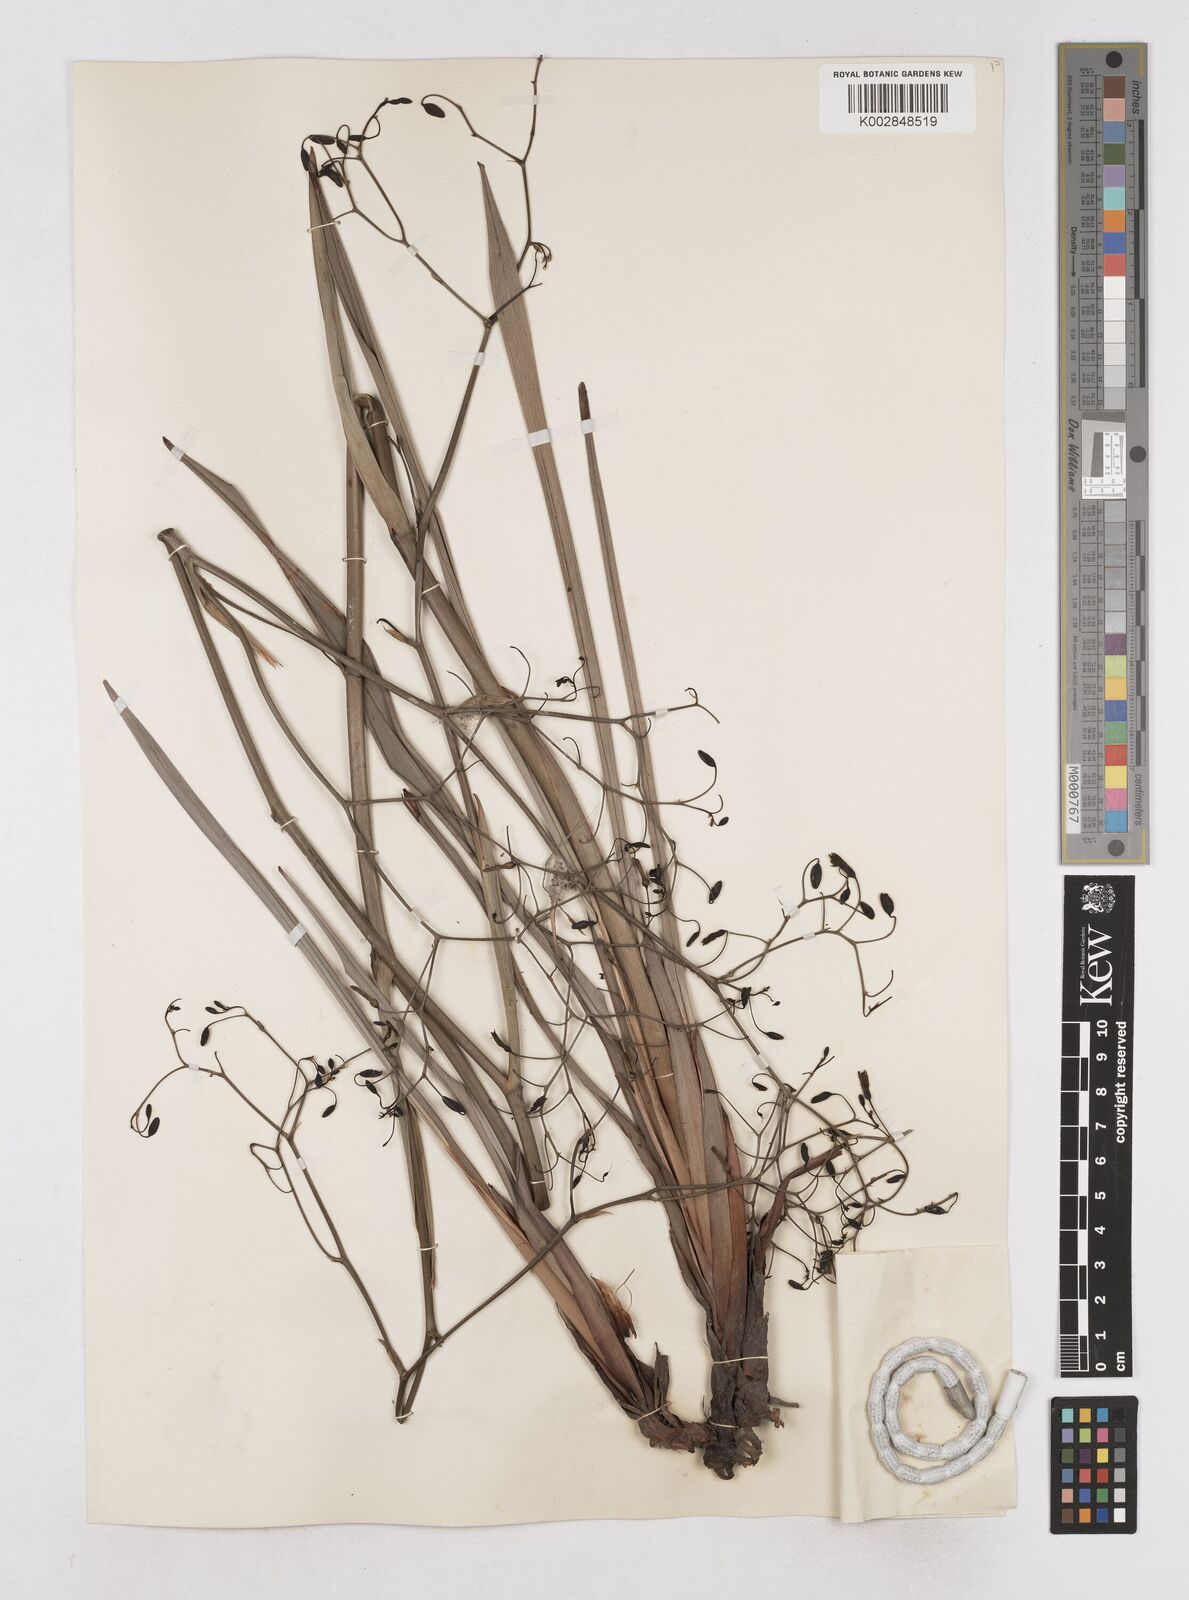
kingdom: Plantae
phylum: Tracheophyta
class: Liliopsida
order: Asparagales
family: Asphodelaceae
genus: Dianella
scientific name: Dianella revoluta
